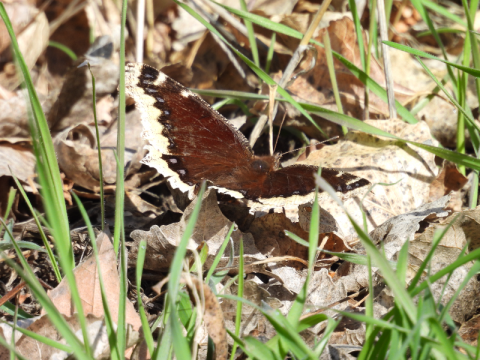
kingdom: Animalia
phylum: Arthropoda
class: Insecta
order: Lepidoptera
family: Nymphalidae
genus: Nymphalis
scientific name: Nymphalis antiopa
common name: Mourning Cloak
